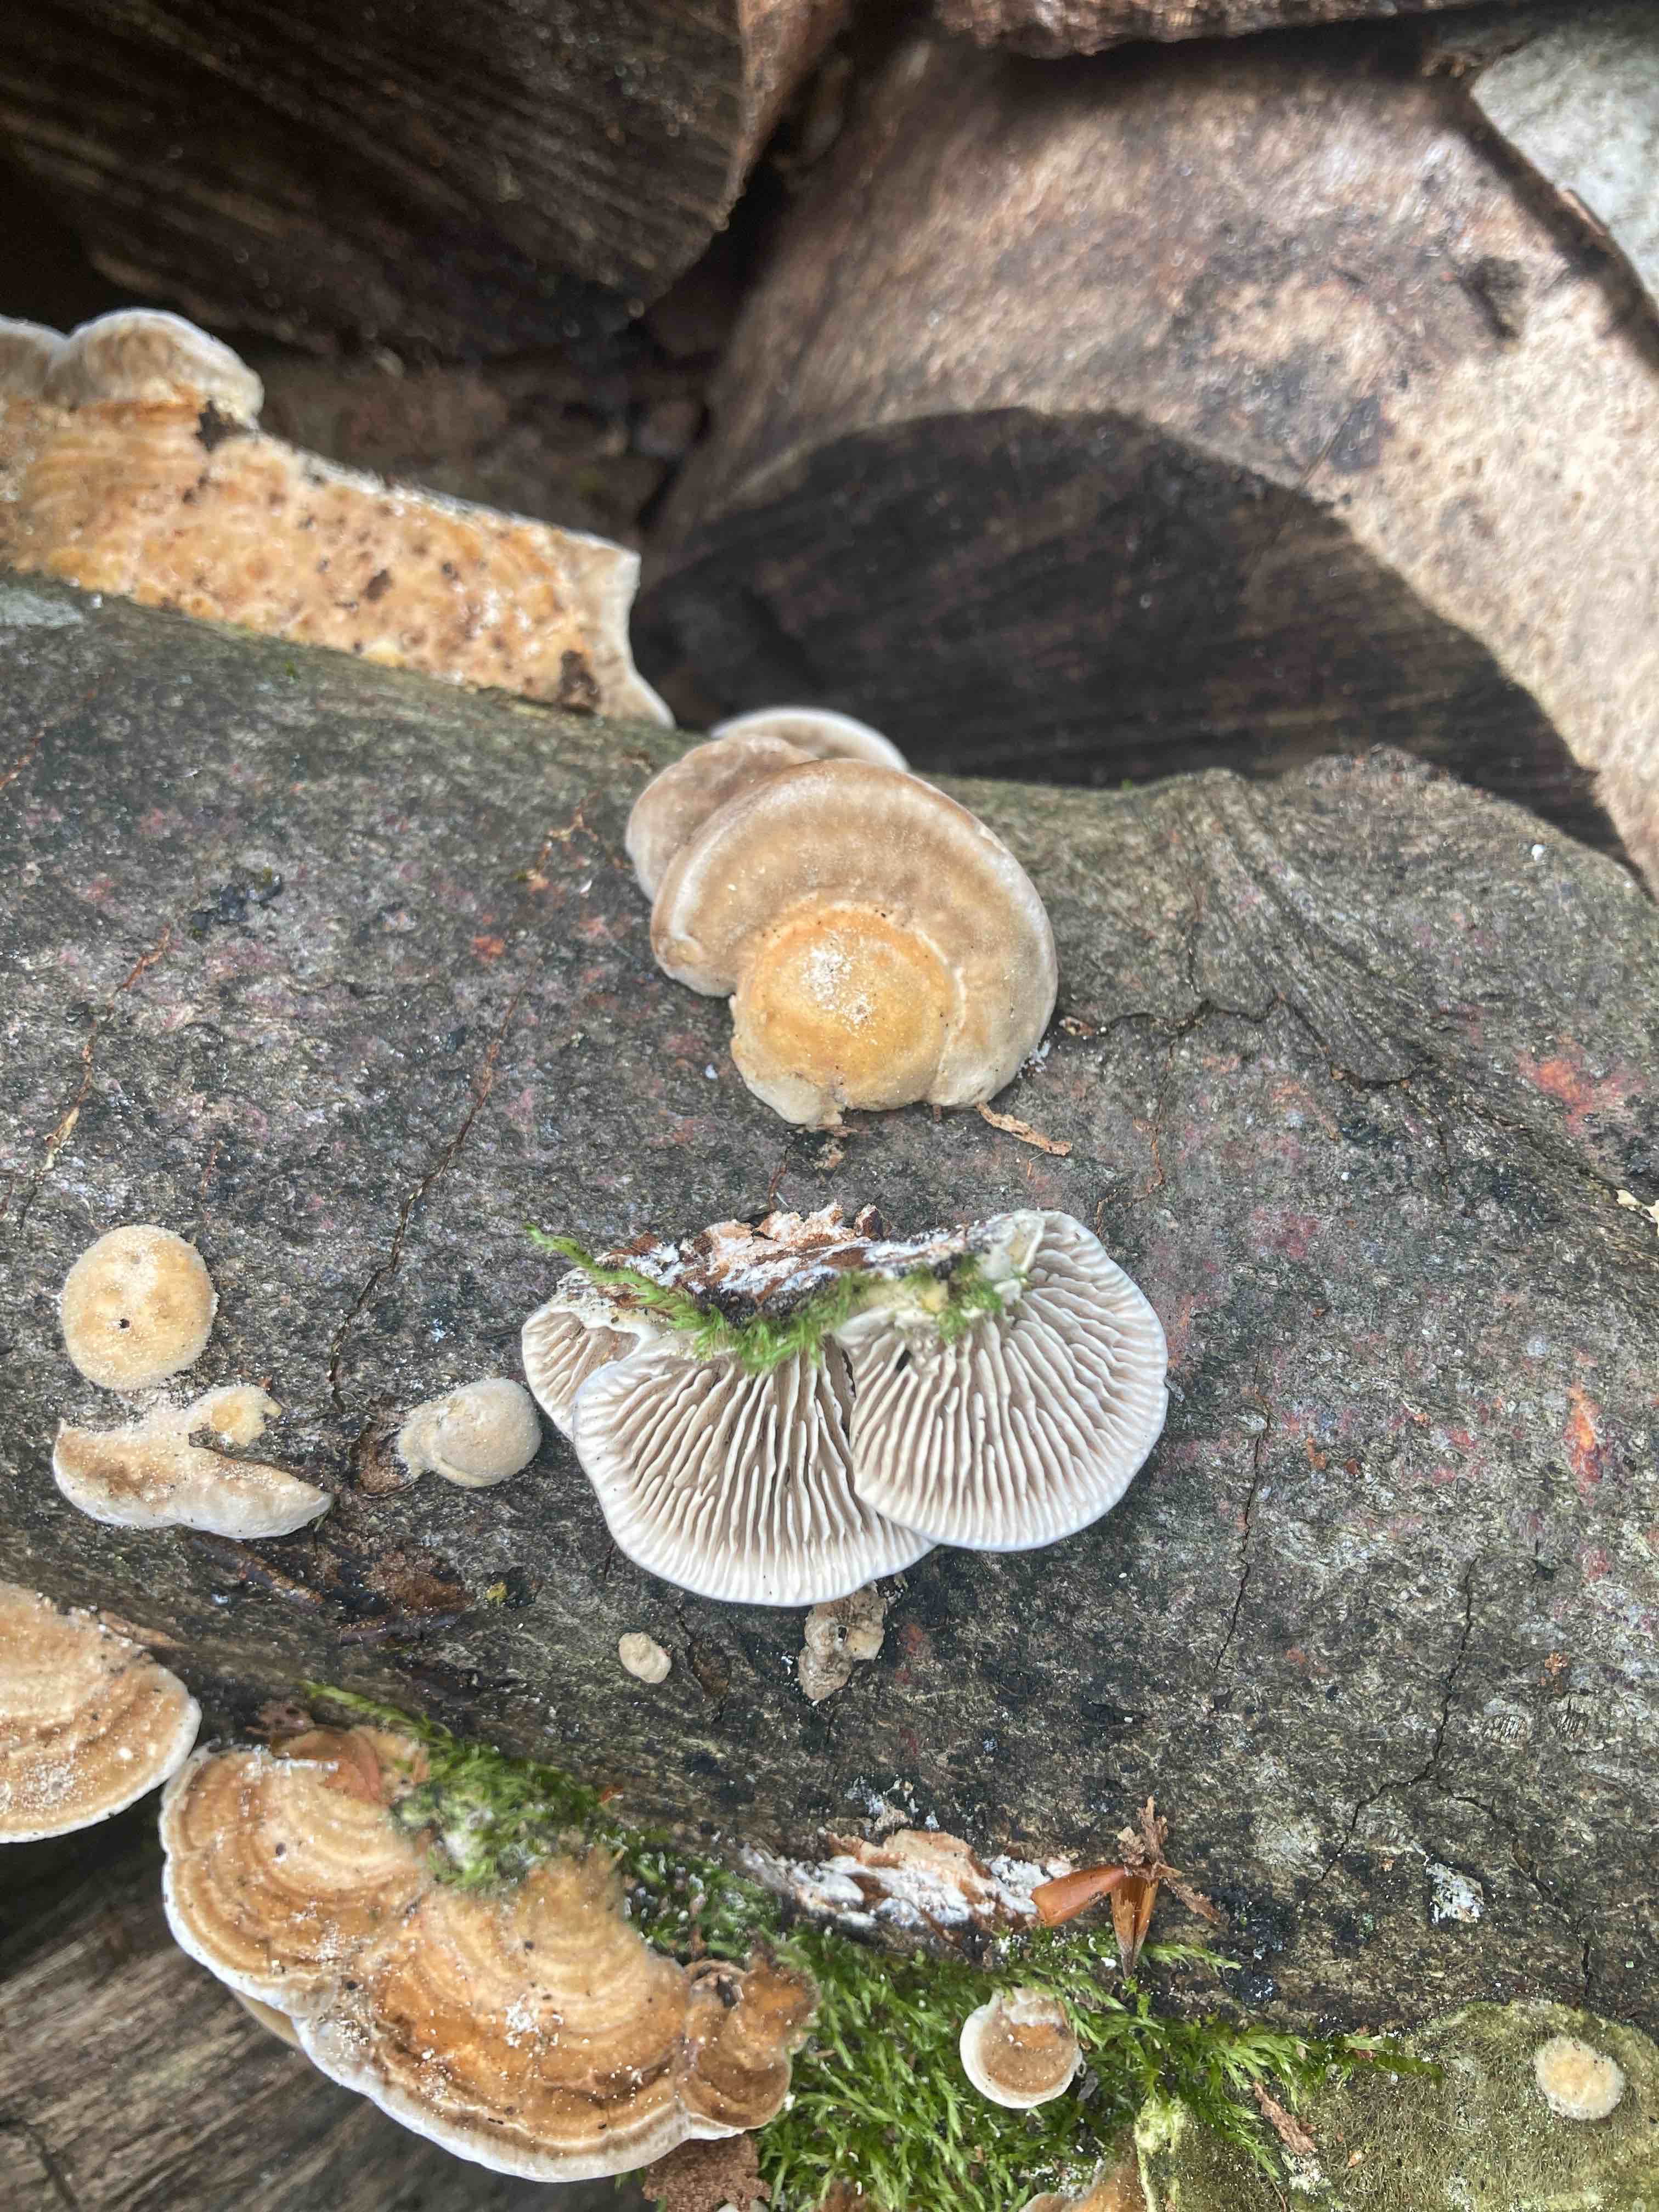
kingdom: Fungi
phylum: Basidiomycota
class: Agaricomycetes
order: Polyporales
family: Polyporaceae
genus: Lenzites
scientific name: Lenzites betulinus
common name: birke-læderporesvamp
